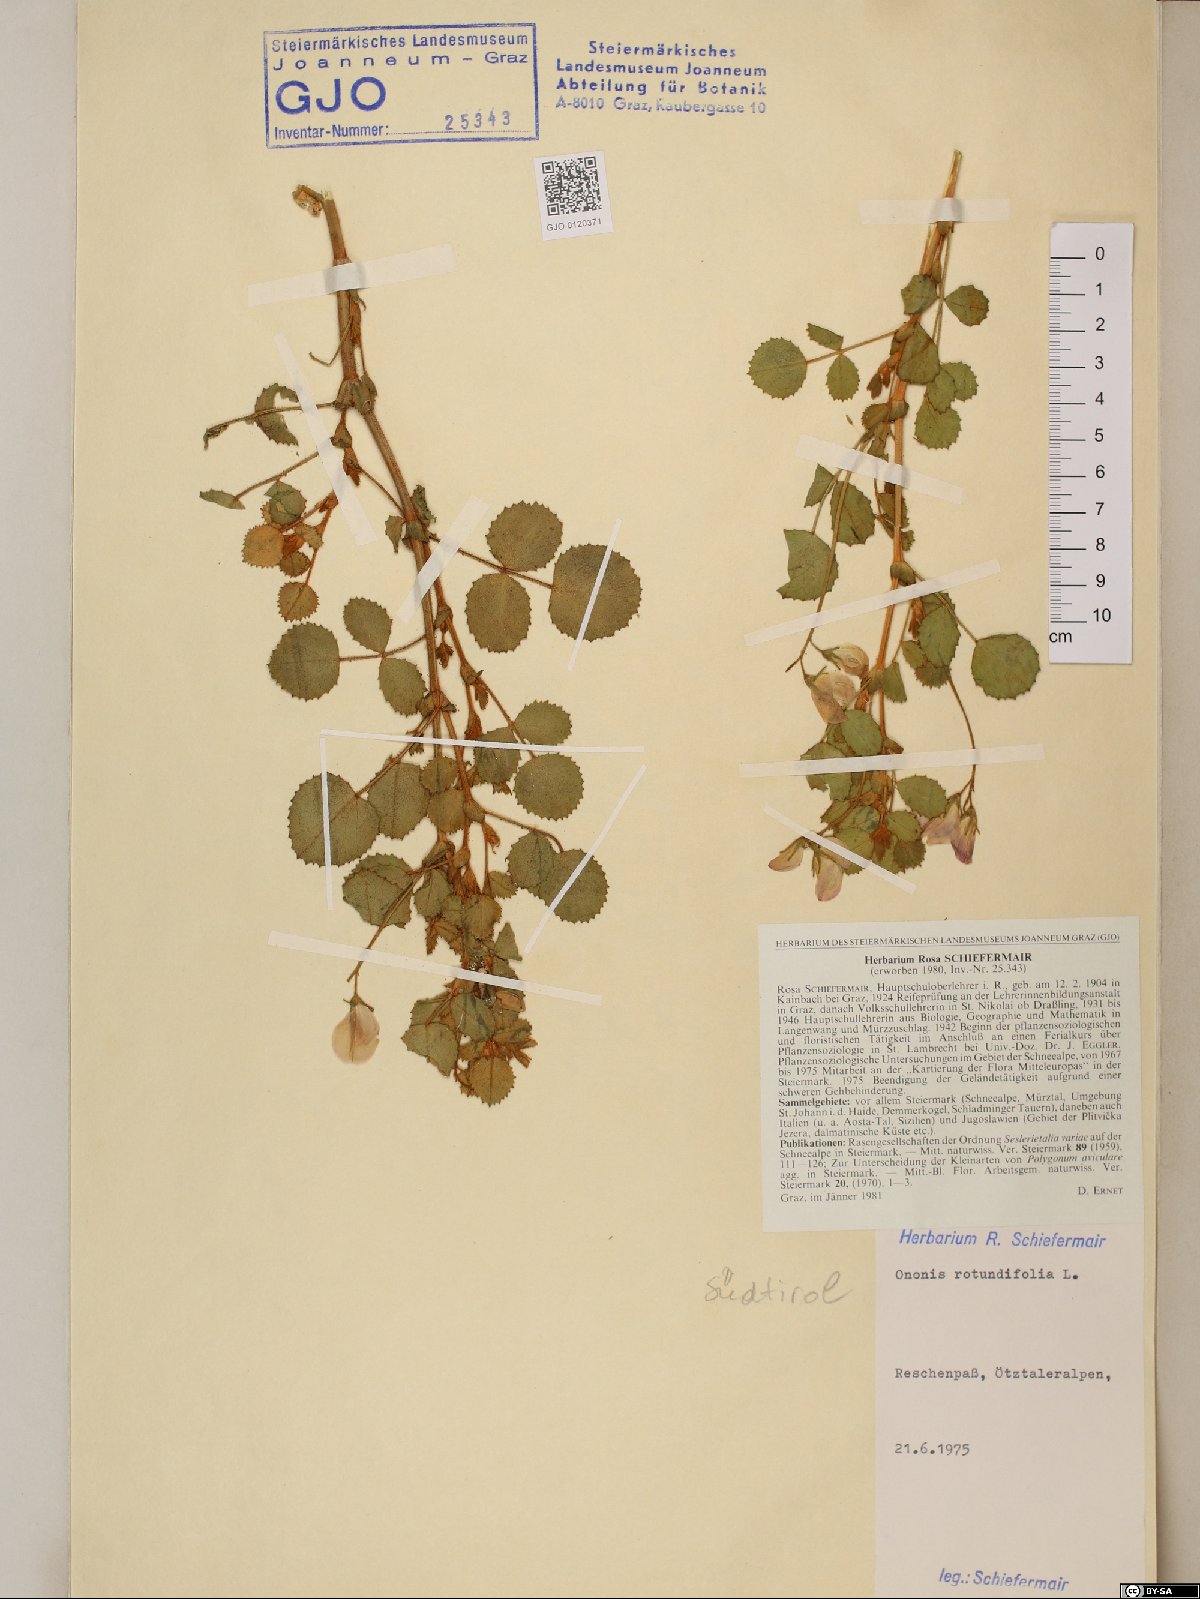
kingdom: Plantae
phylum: Tracheophyta
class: Magnoliopsida
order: Fabales
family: Fabaceae
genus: Ononis
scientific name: Ononis rotundifolia
